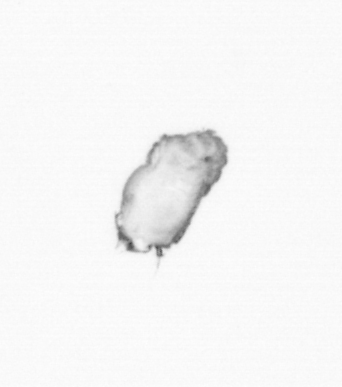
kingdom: Animalia
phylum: Annelida
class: Polychaeta
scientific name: Polychaeta
